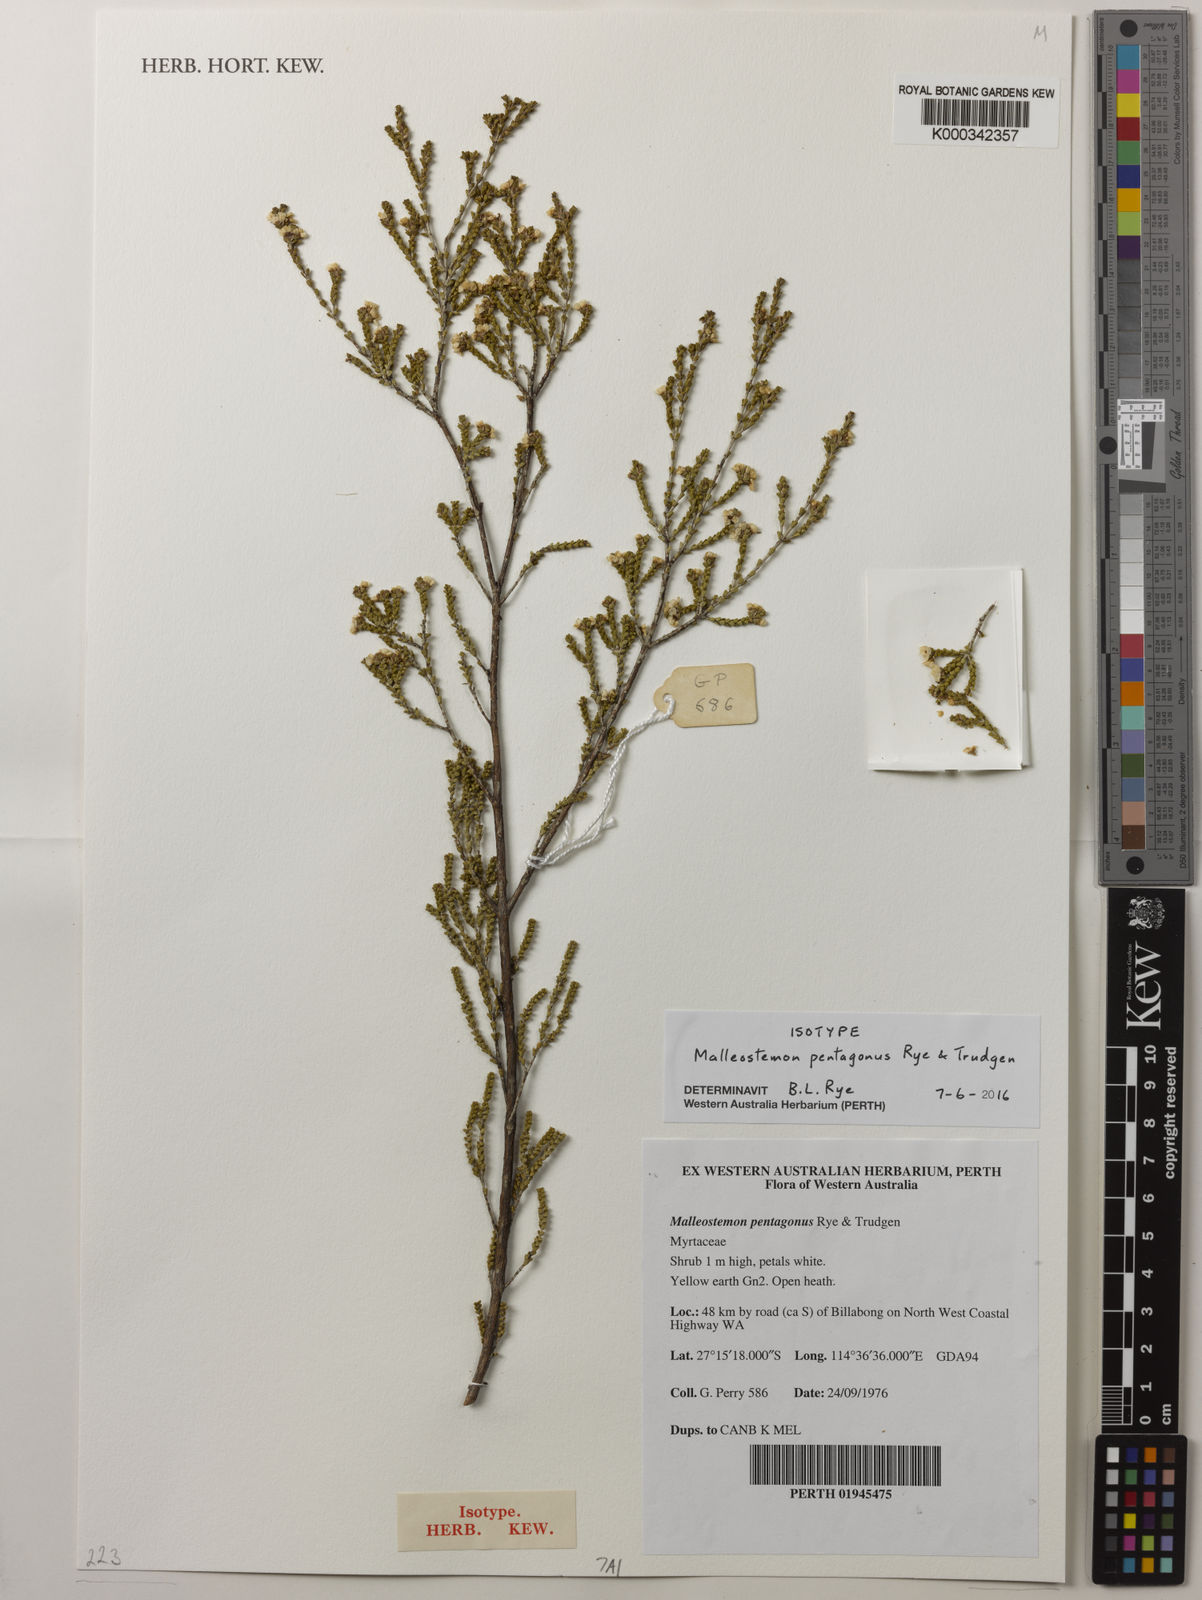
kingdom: Plantae
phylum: Tracheophyta
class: Magnoliopsida
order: Myrtales
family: Myrtaceae
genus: Malleostemon
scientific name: Malleostemon pentagonus
